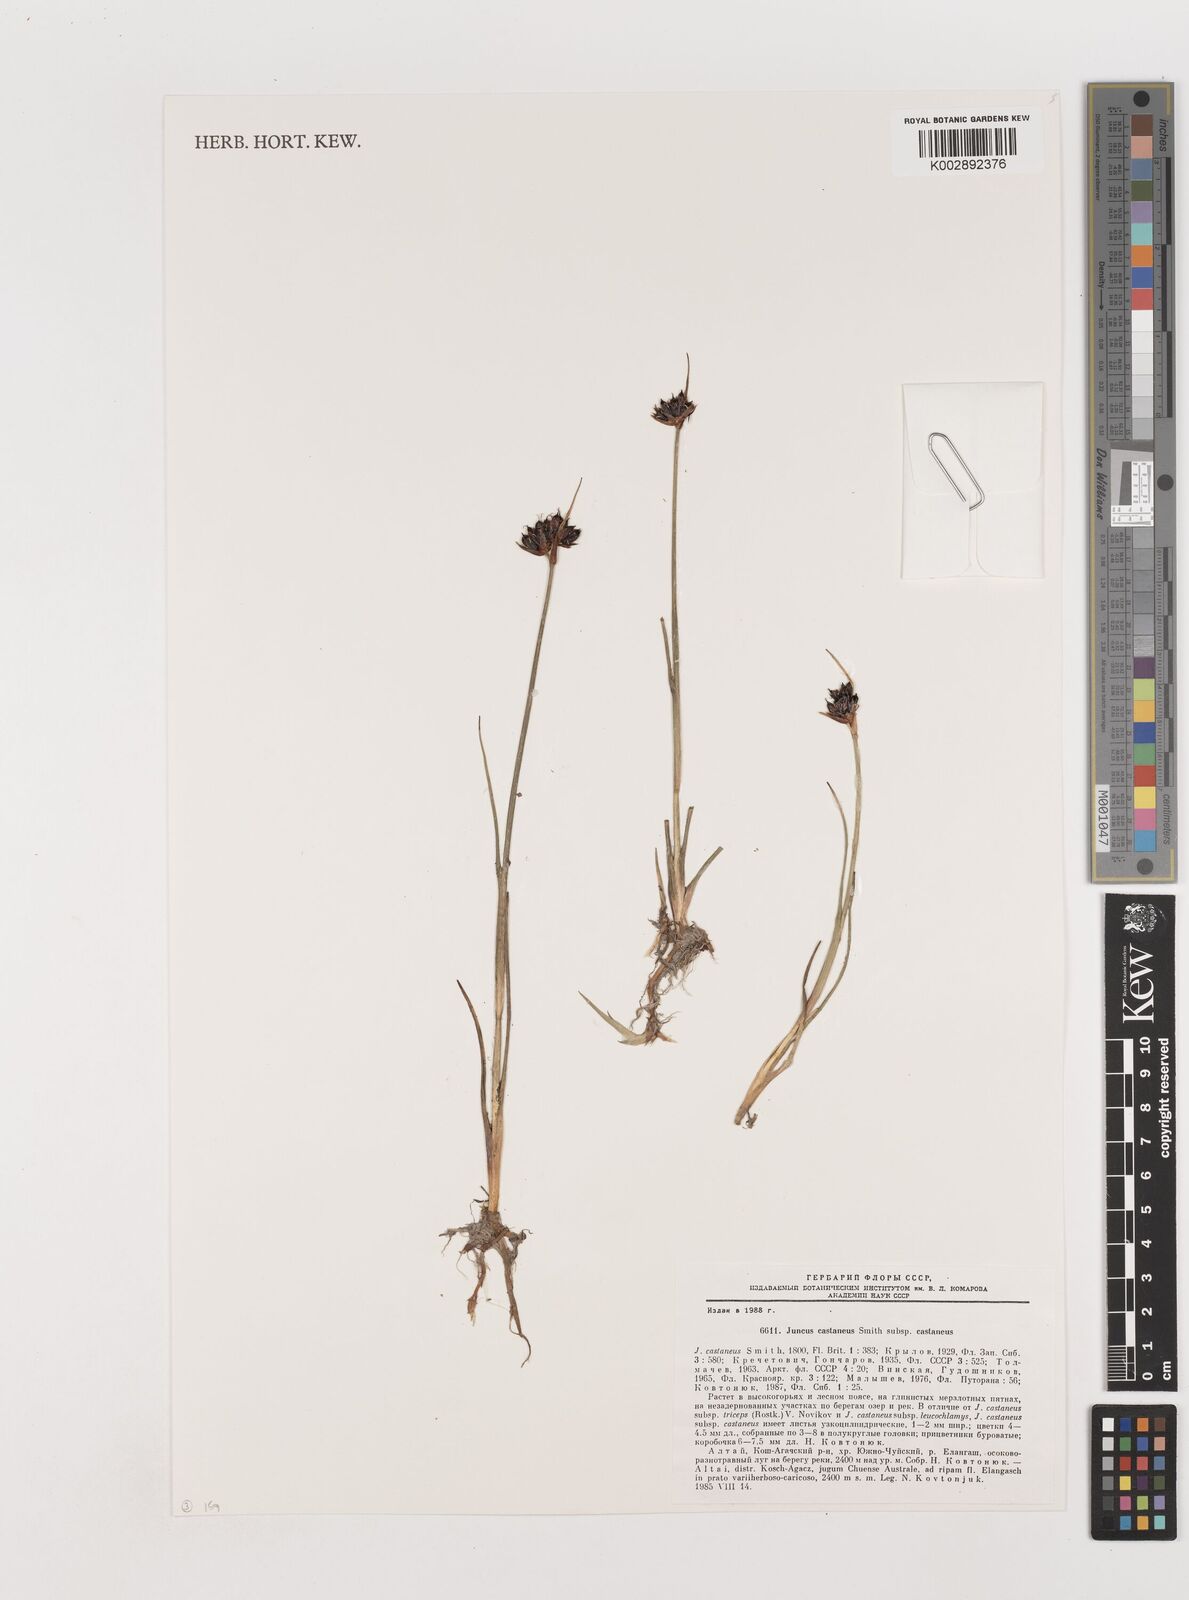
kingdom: Plantae
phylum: Tracheophyta
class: Liliopsida
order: Poales
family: Juncaceae
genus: Juncus
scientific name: Juncus castaneus
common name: Chestnut rush
